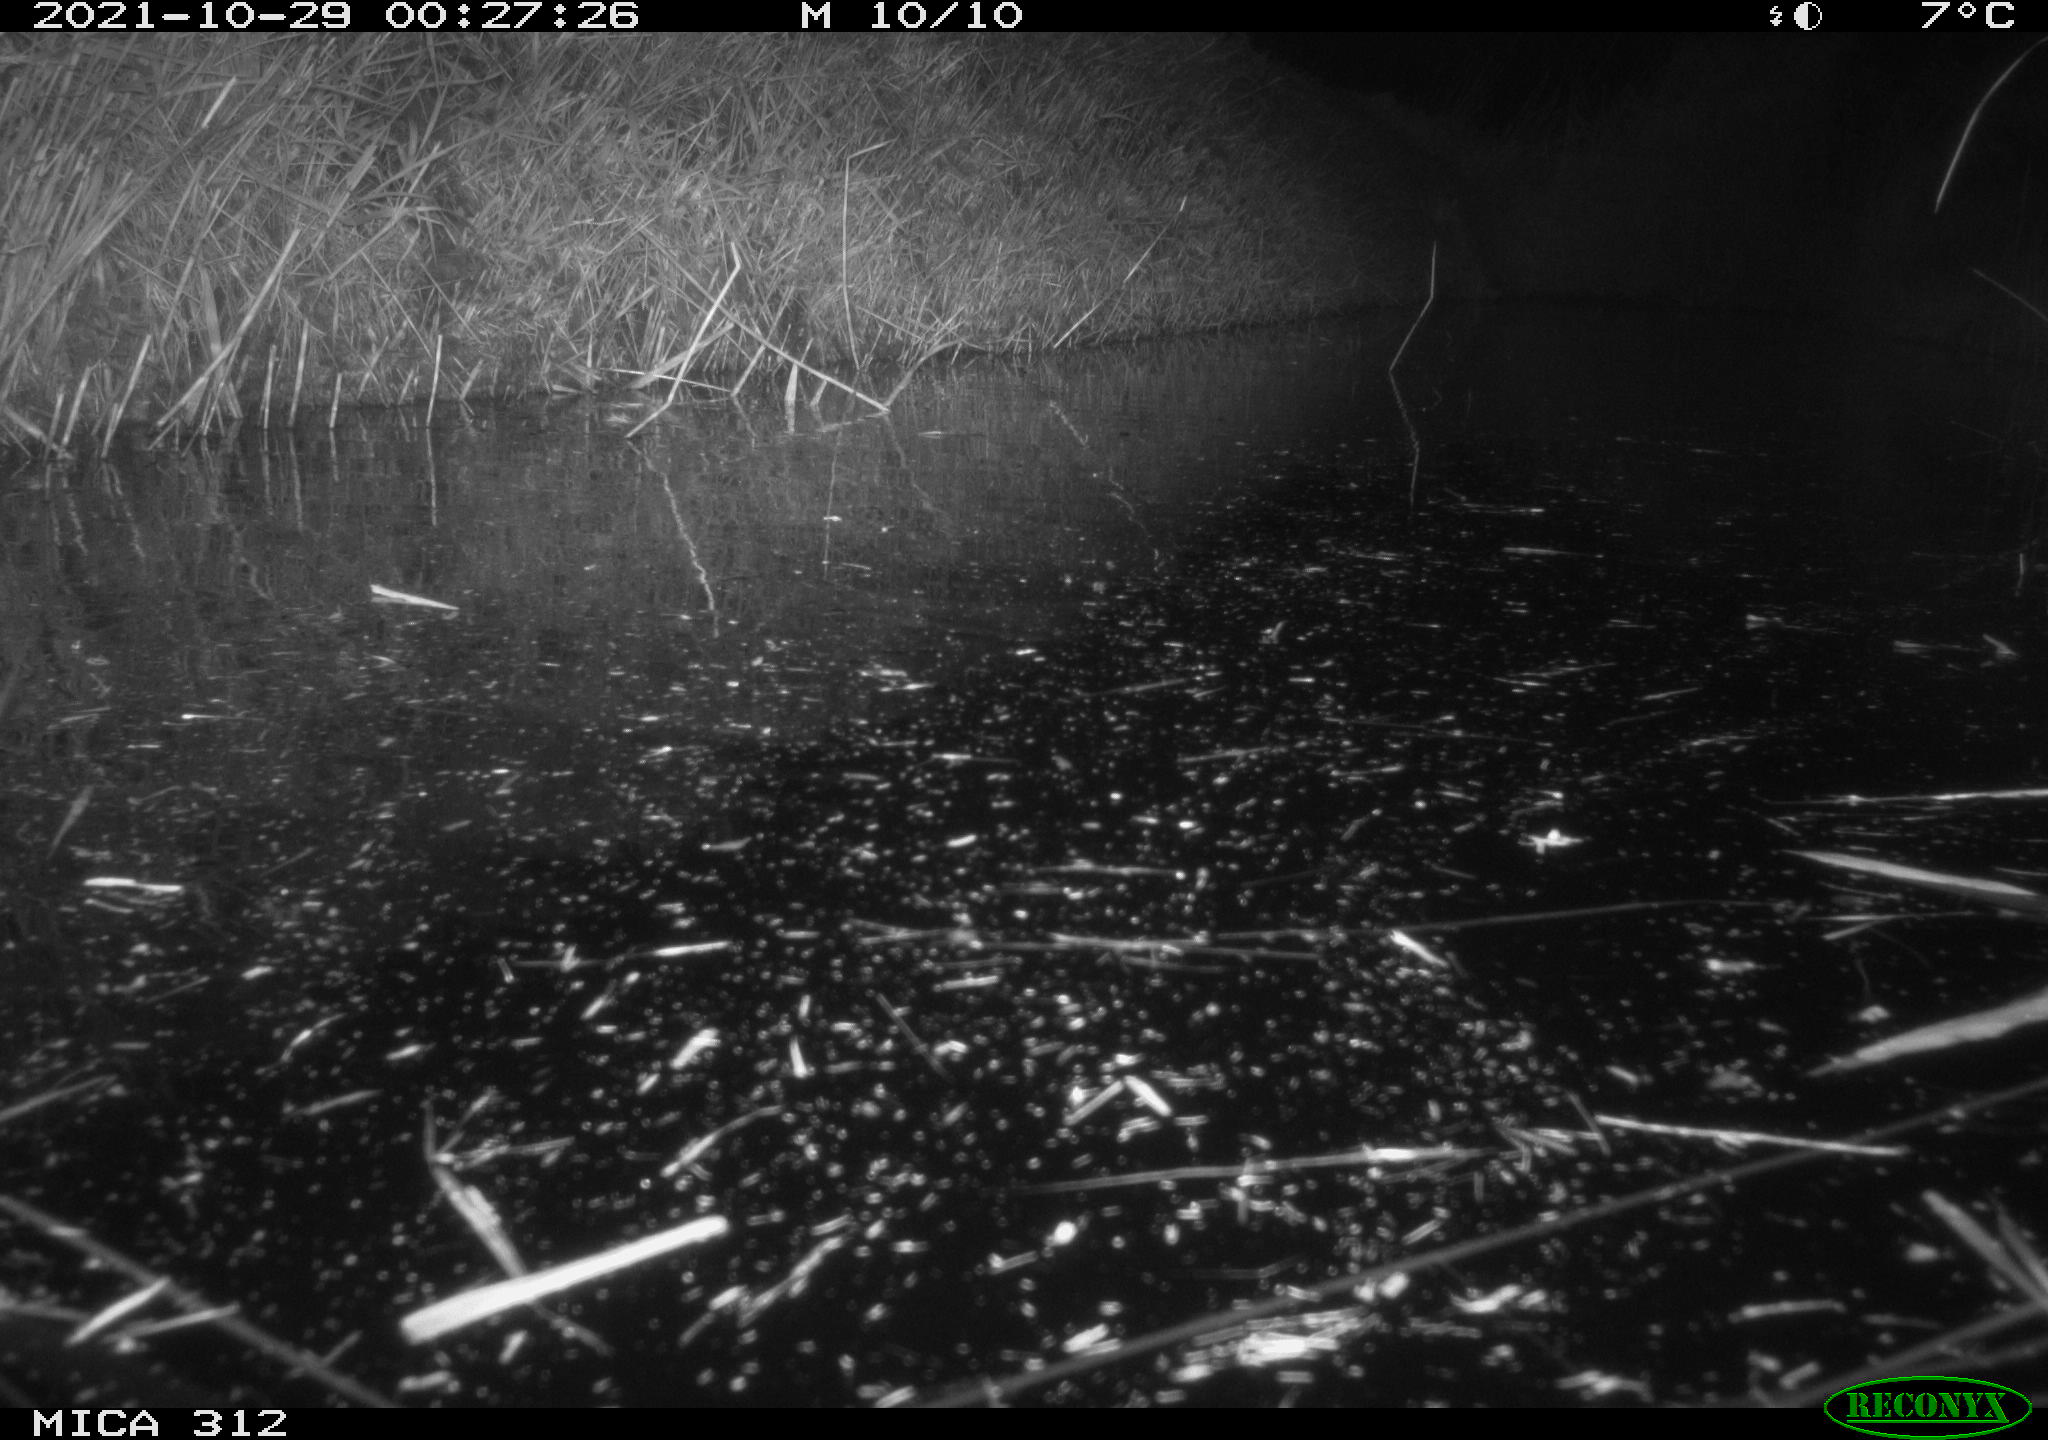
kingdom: Animalia
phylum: Chordata
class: Mammalia
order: Rodentia
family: Muridae
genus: Rattus
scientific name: Rattus norvegicus
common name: Brown rat
